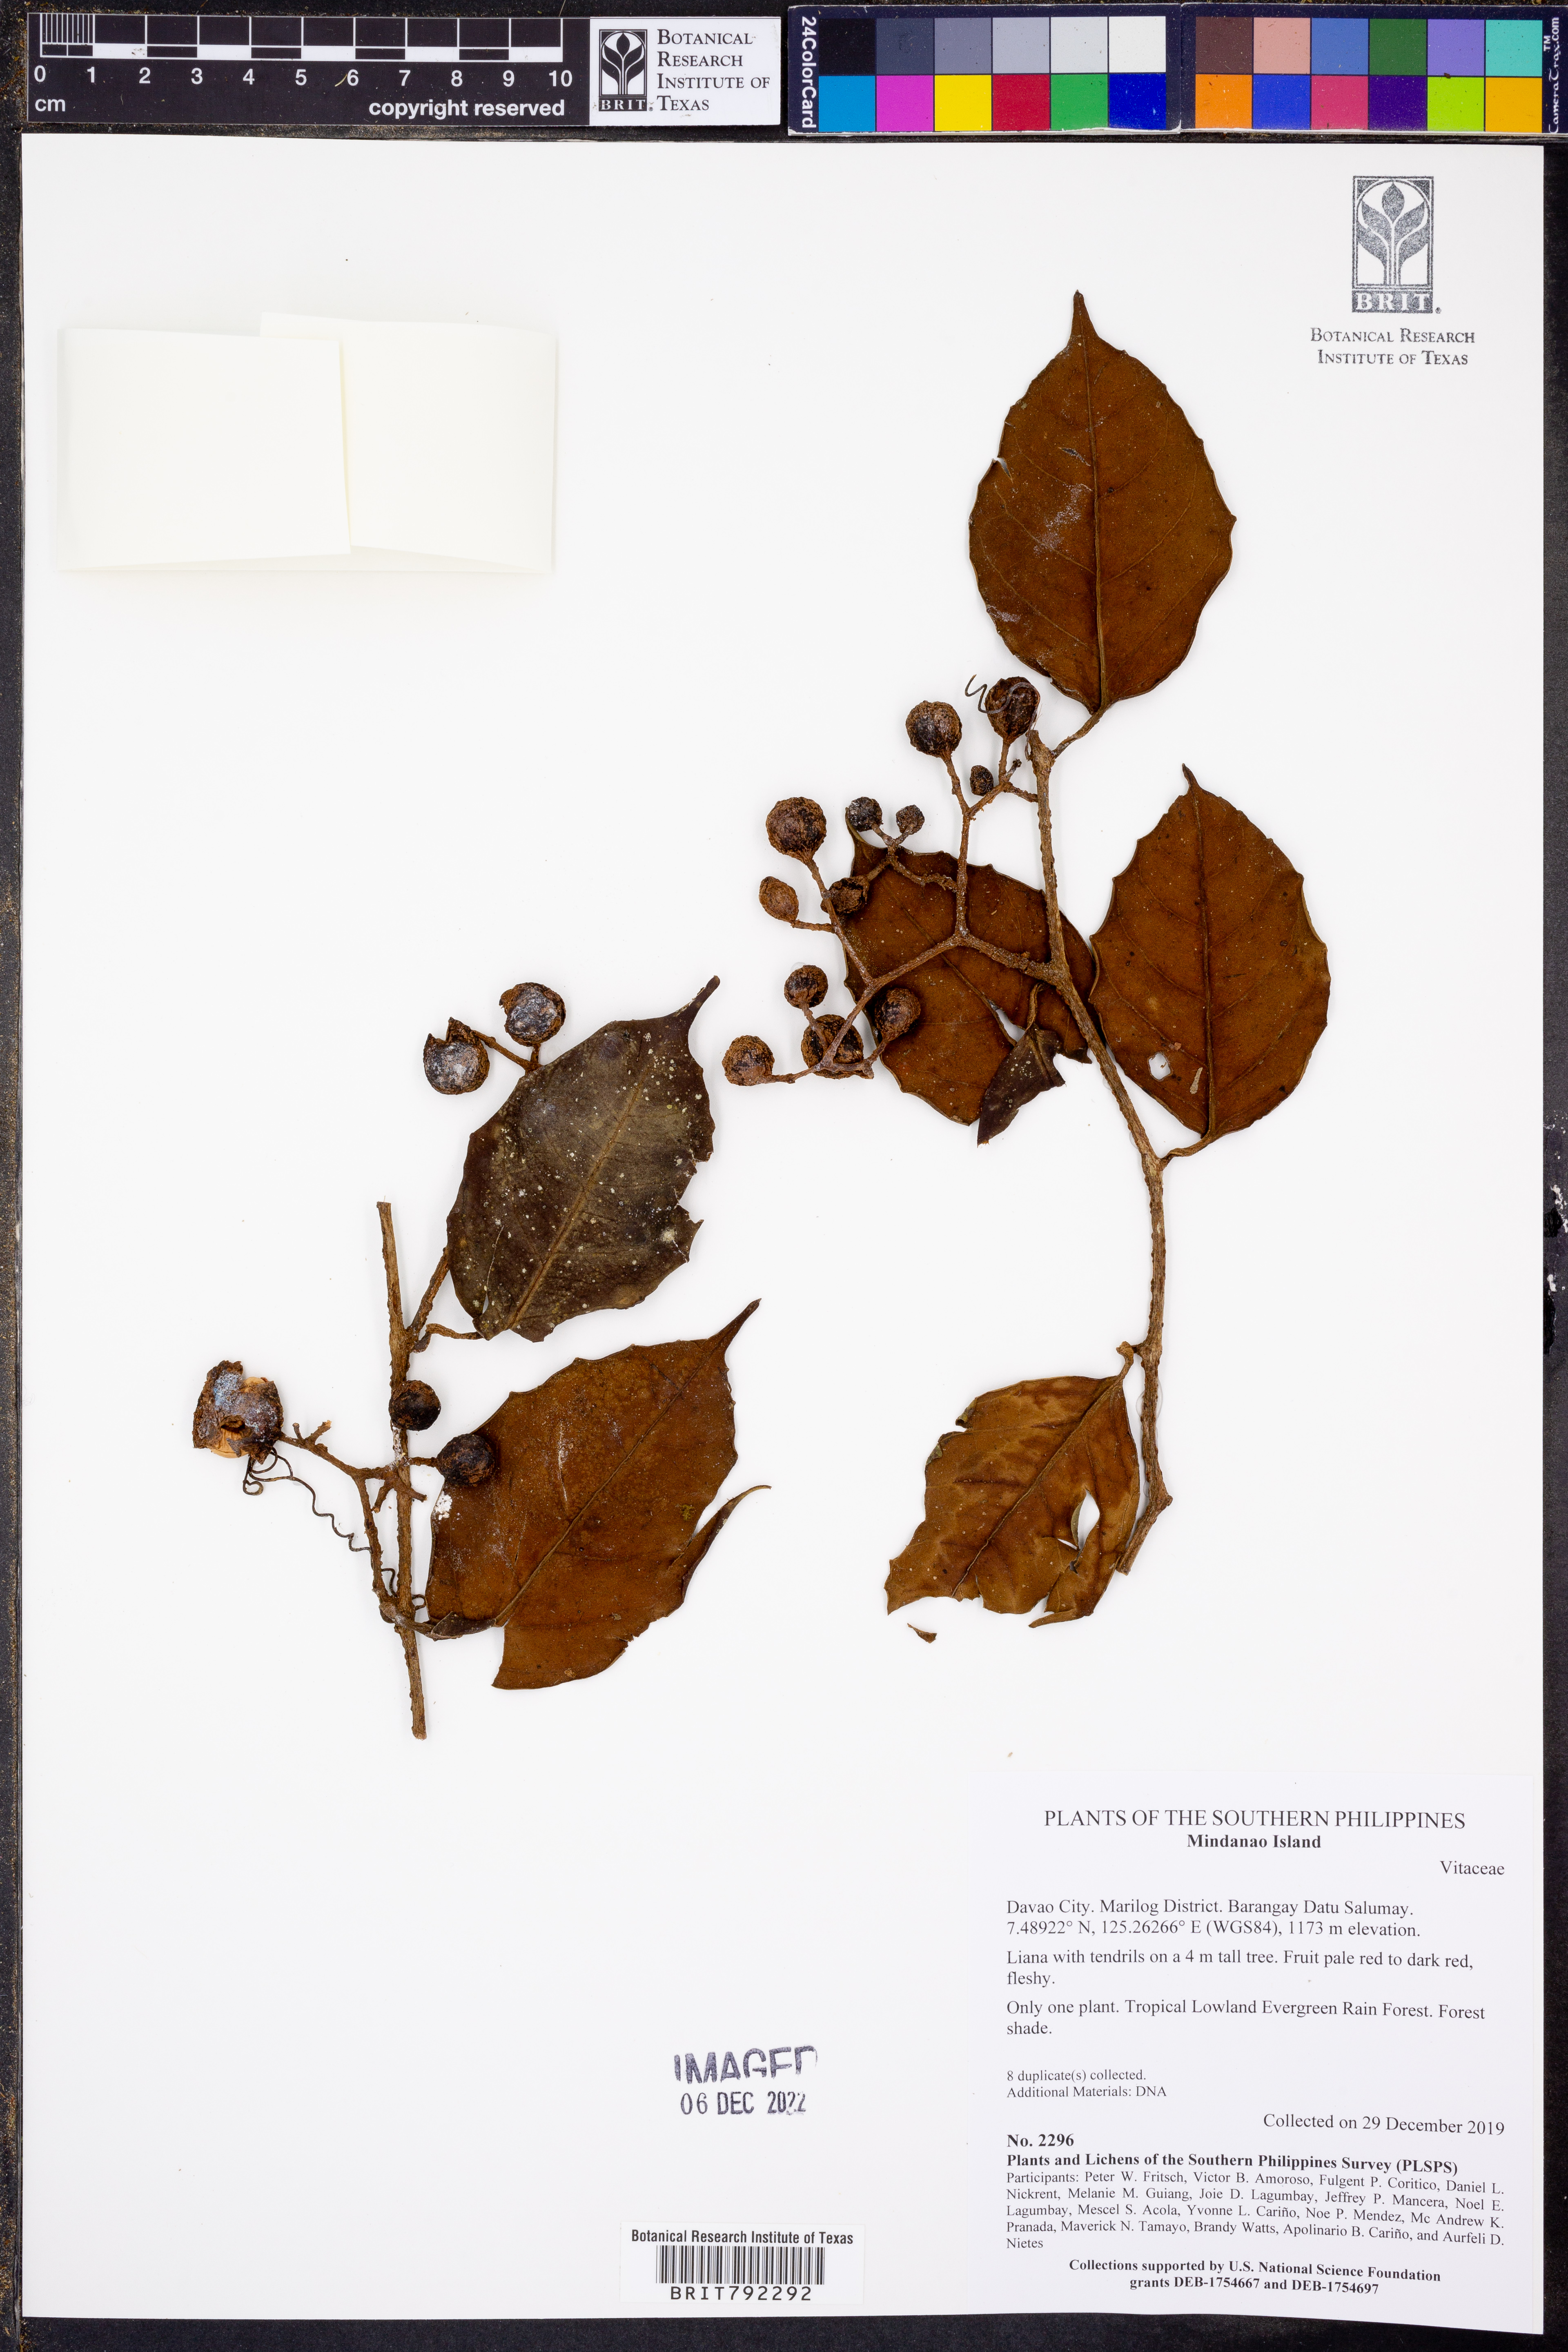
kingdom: Plantae
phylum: Tracheophyta
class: Magnoliopsida
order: Vitales
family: Vitaceae
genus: Tetrastigma
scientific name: Tetrastigma simplicifolia
